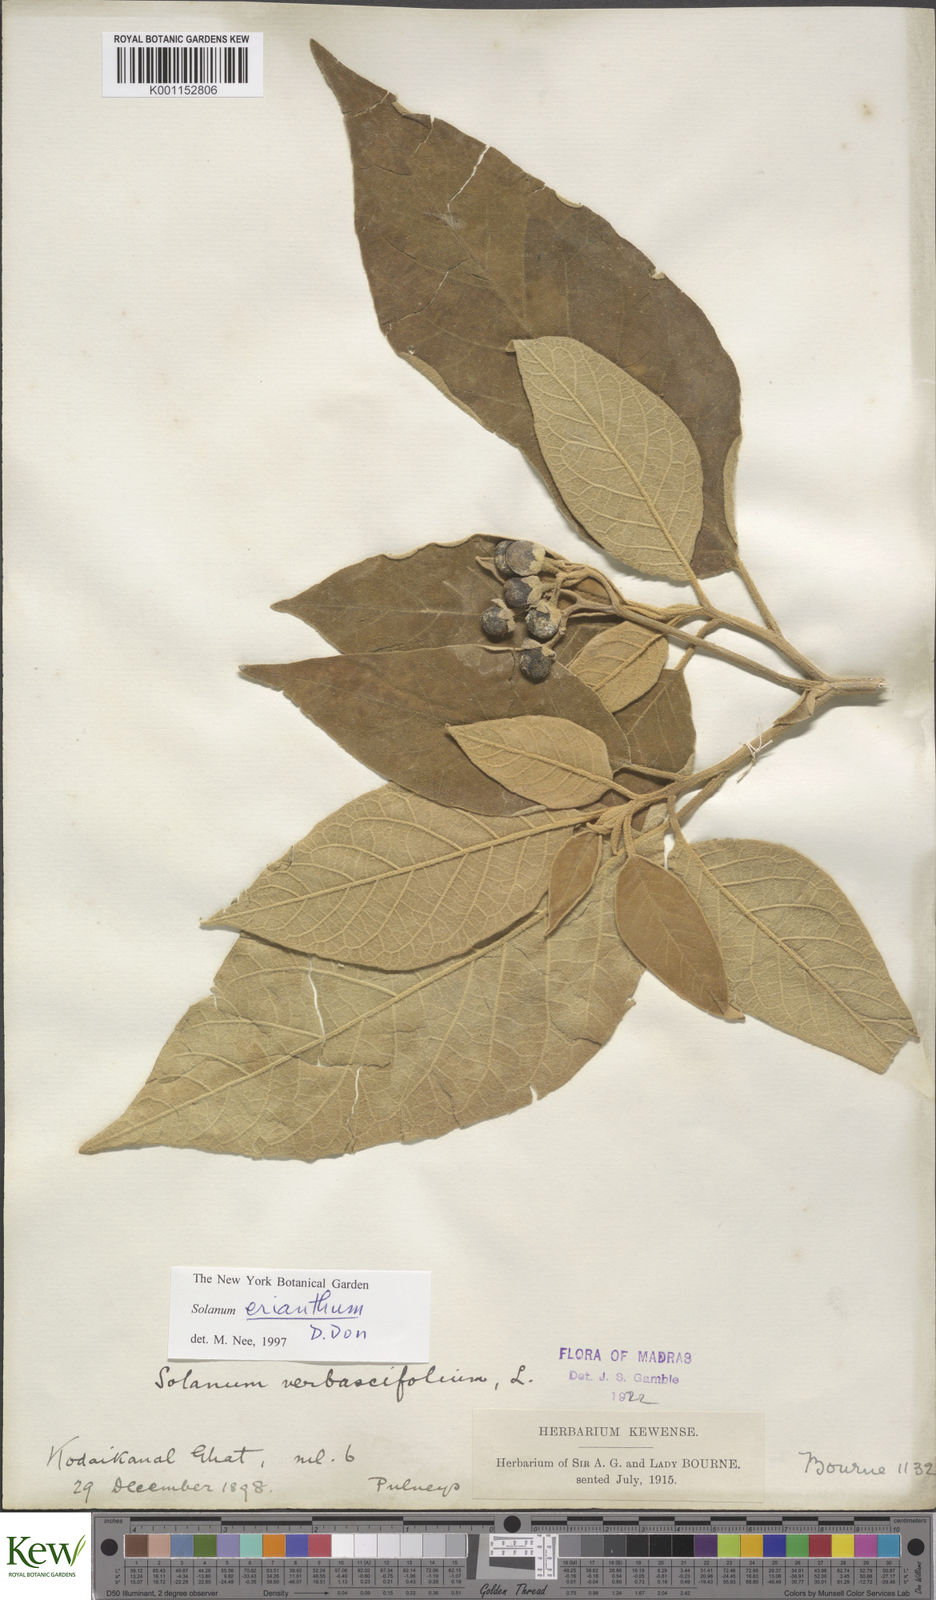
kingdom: Plantae
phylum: Tracheophyta
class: Magnoliopsida
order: Solanales
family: Solanaceae
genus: Solanum
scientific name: Solanum erianthum
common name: Tobacco-tree
